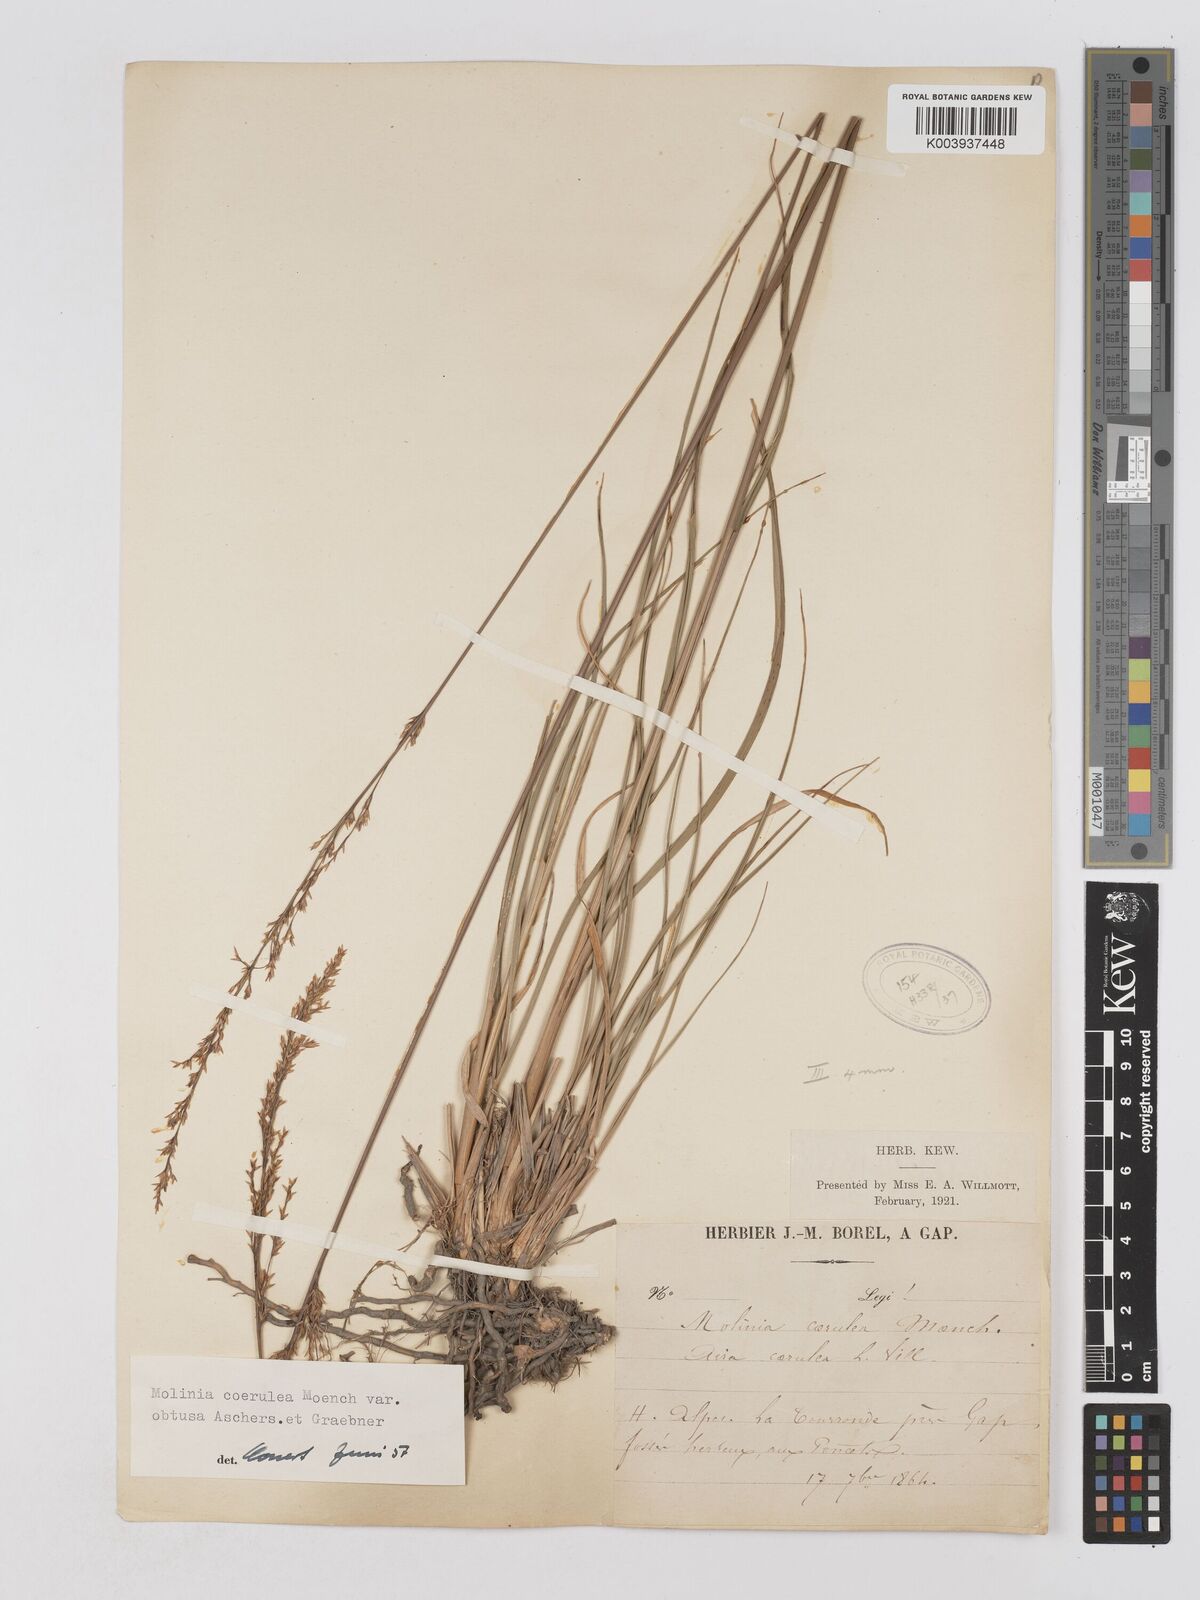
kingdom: Plantae
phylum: Tracheophyta
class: Liliopsida
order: Poales
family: Poaceae
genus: Molinia
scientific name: Molinia caerulea
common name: Purple moor-grass
